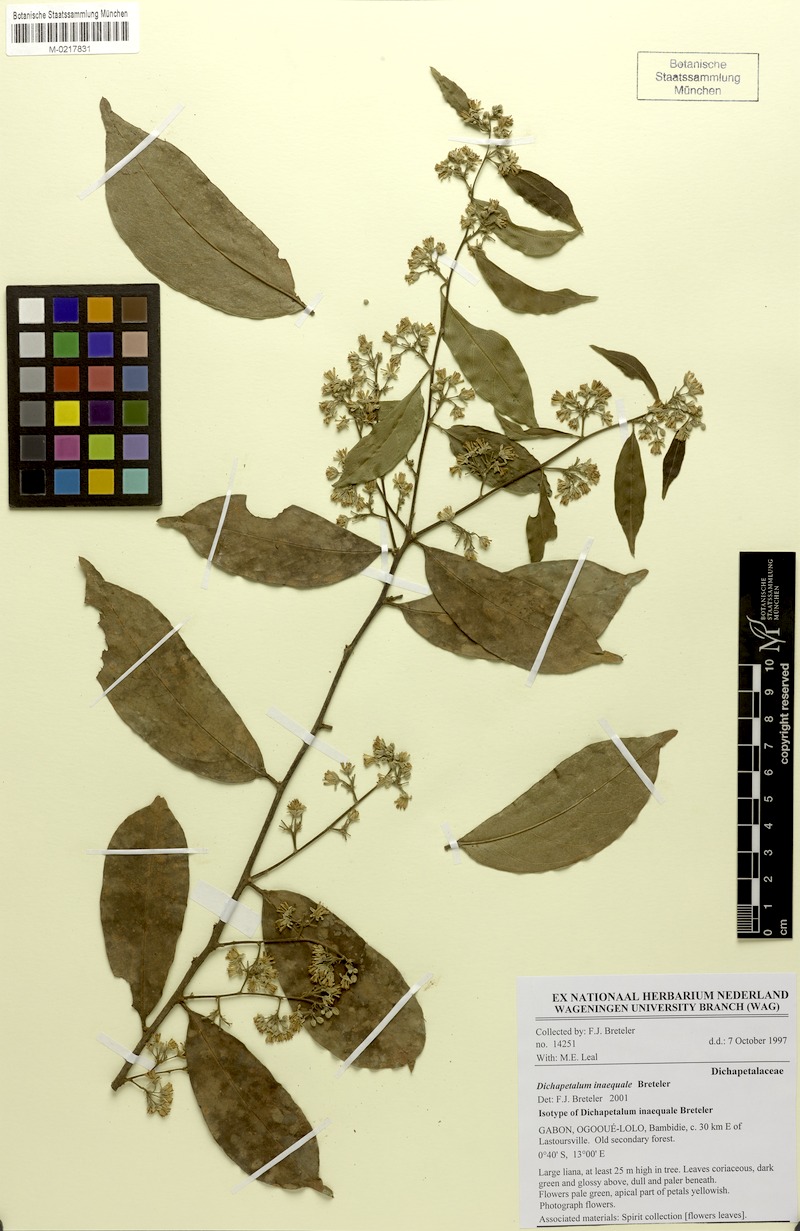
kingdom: Plantae
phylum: Tracheophyta
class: Magnoliopsida
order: Malpighiales
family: Dichapetalaceae
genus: Dichapetalum
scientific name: Dichapetalum inaequale
